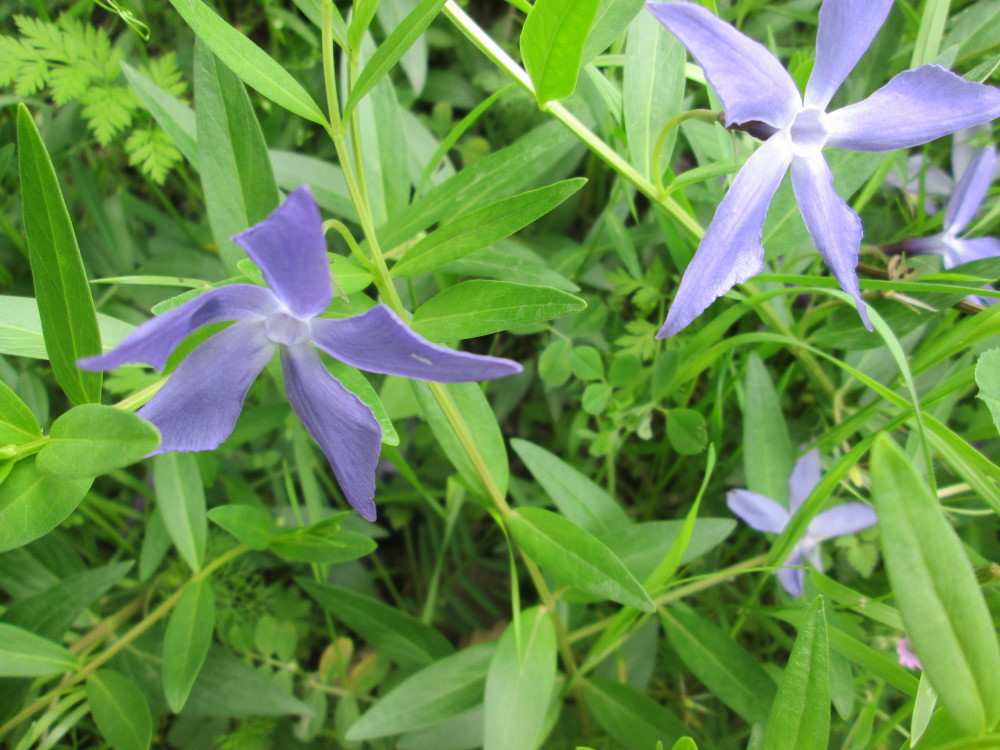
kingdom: Plantae
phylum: Tracheophyta
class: Magnoliopsida
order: Gentianales
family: Apocynaceae
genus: Vinca
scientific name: Vinca herbacea
